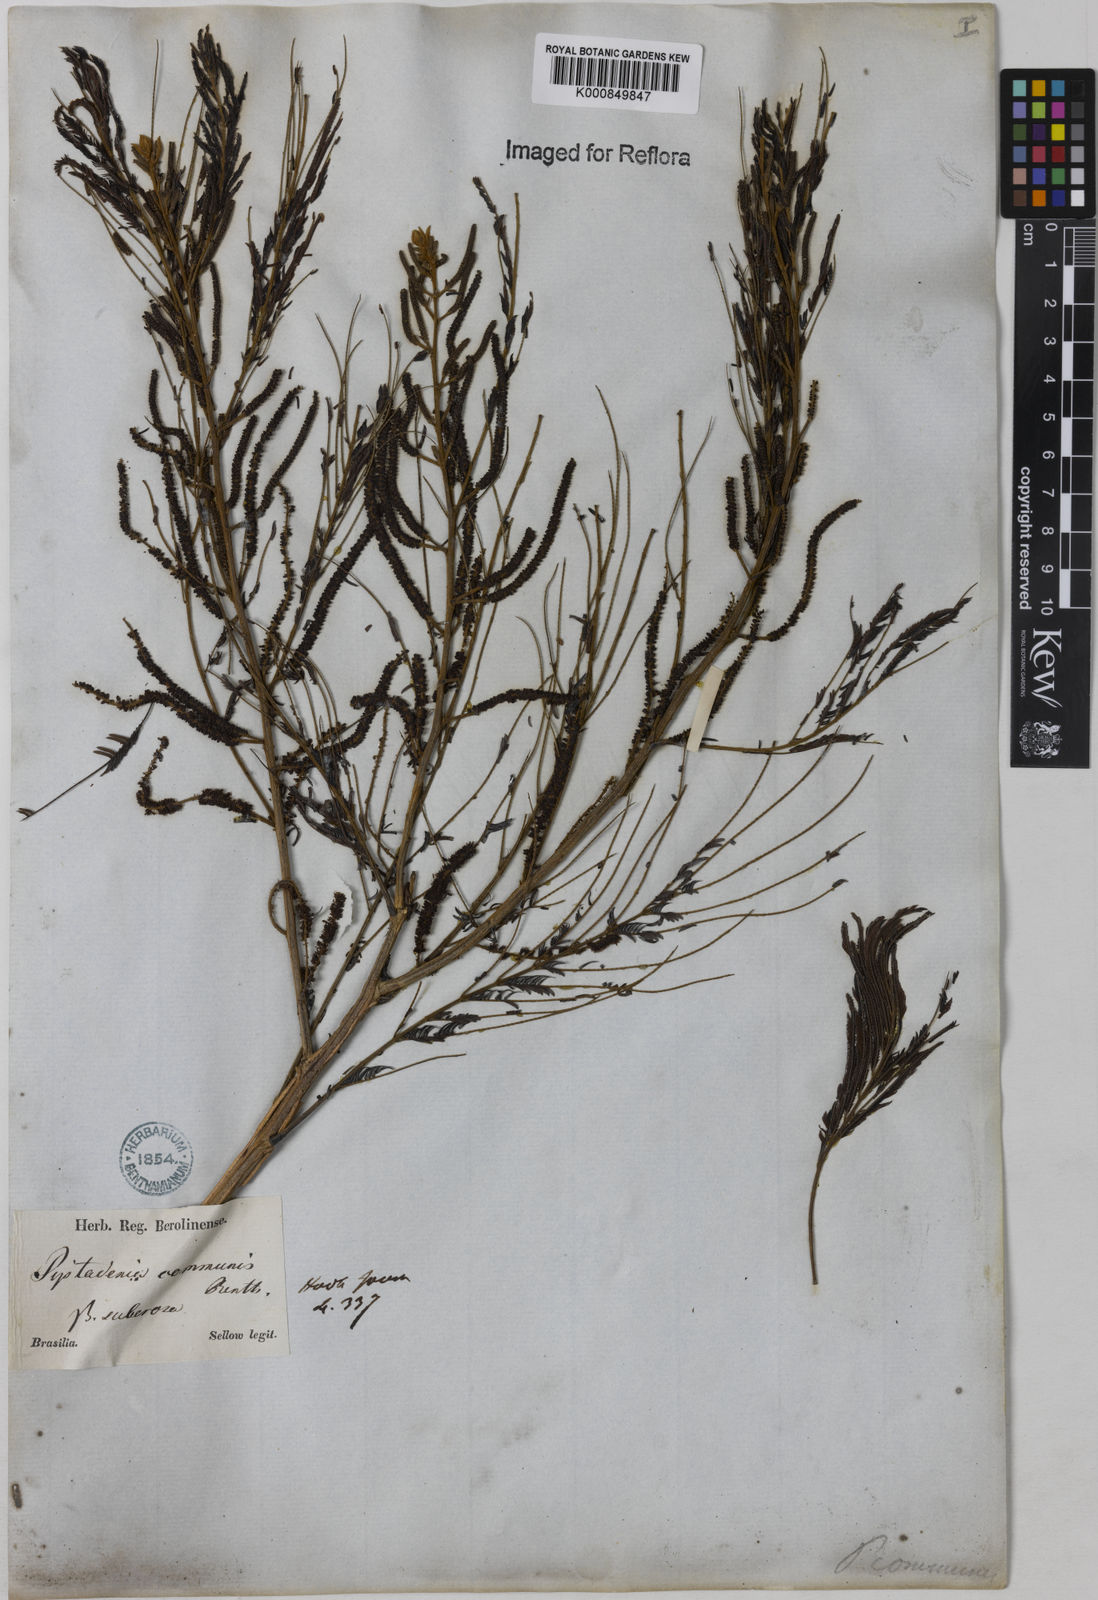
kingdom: Plantae
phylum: Tracheophyta
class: Magnoliopsida
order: Fabales
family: Fabaceae
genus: Piptadenia
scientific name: Piptadenia gonoacantha
